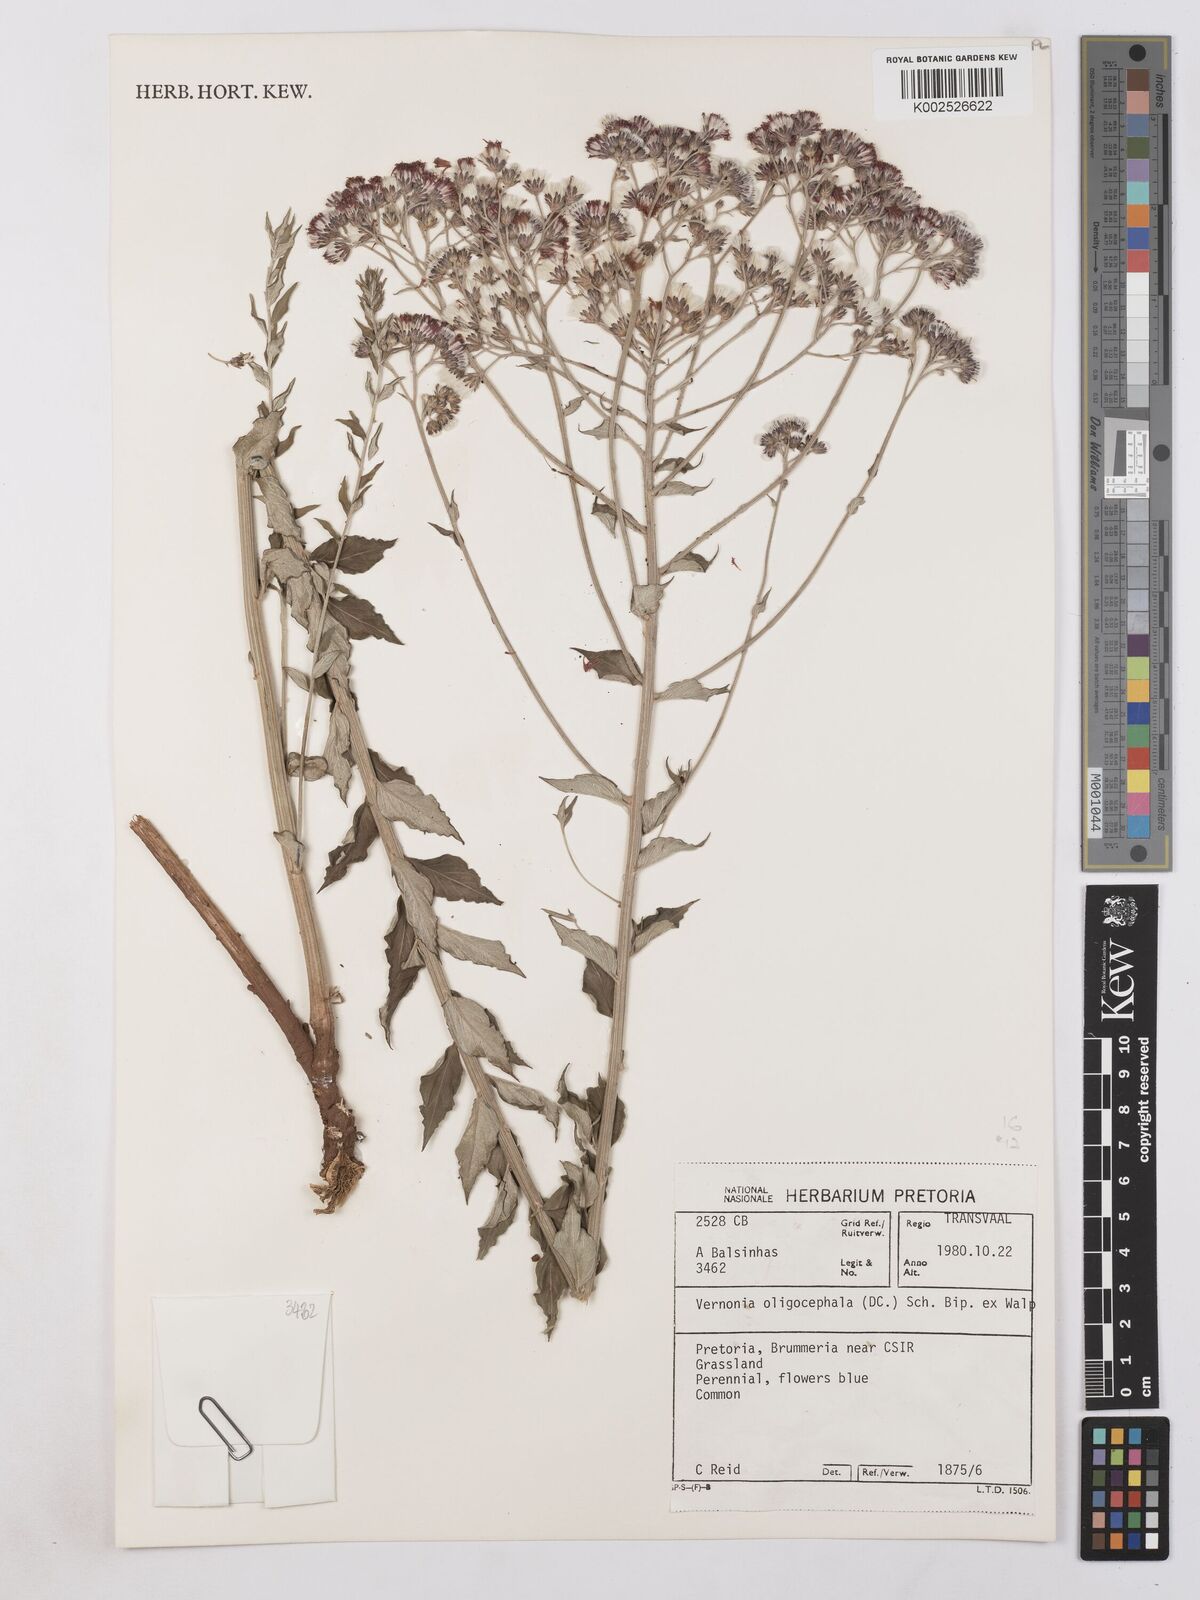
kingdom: Plantae
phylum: Tracheophyta
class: Magnoliopsida
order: Asterales
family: Asteraceae
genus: Hilliardiella
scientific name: Hilliardiella oligocephala
